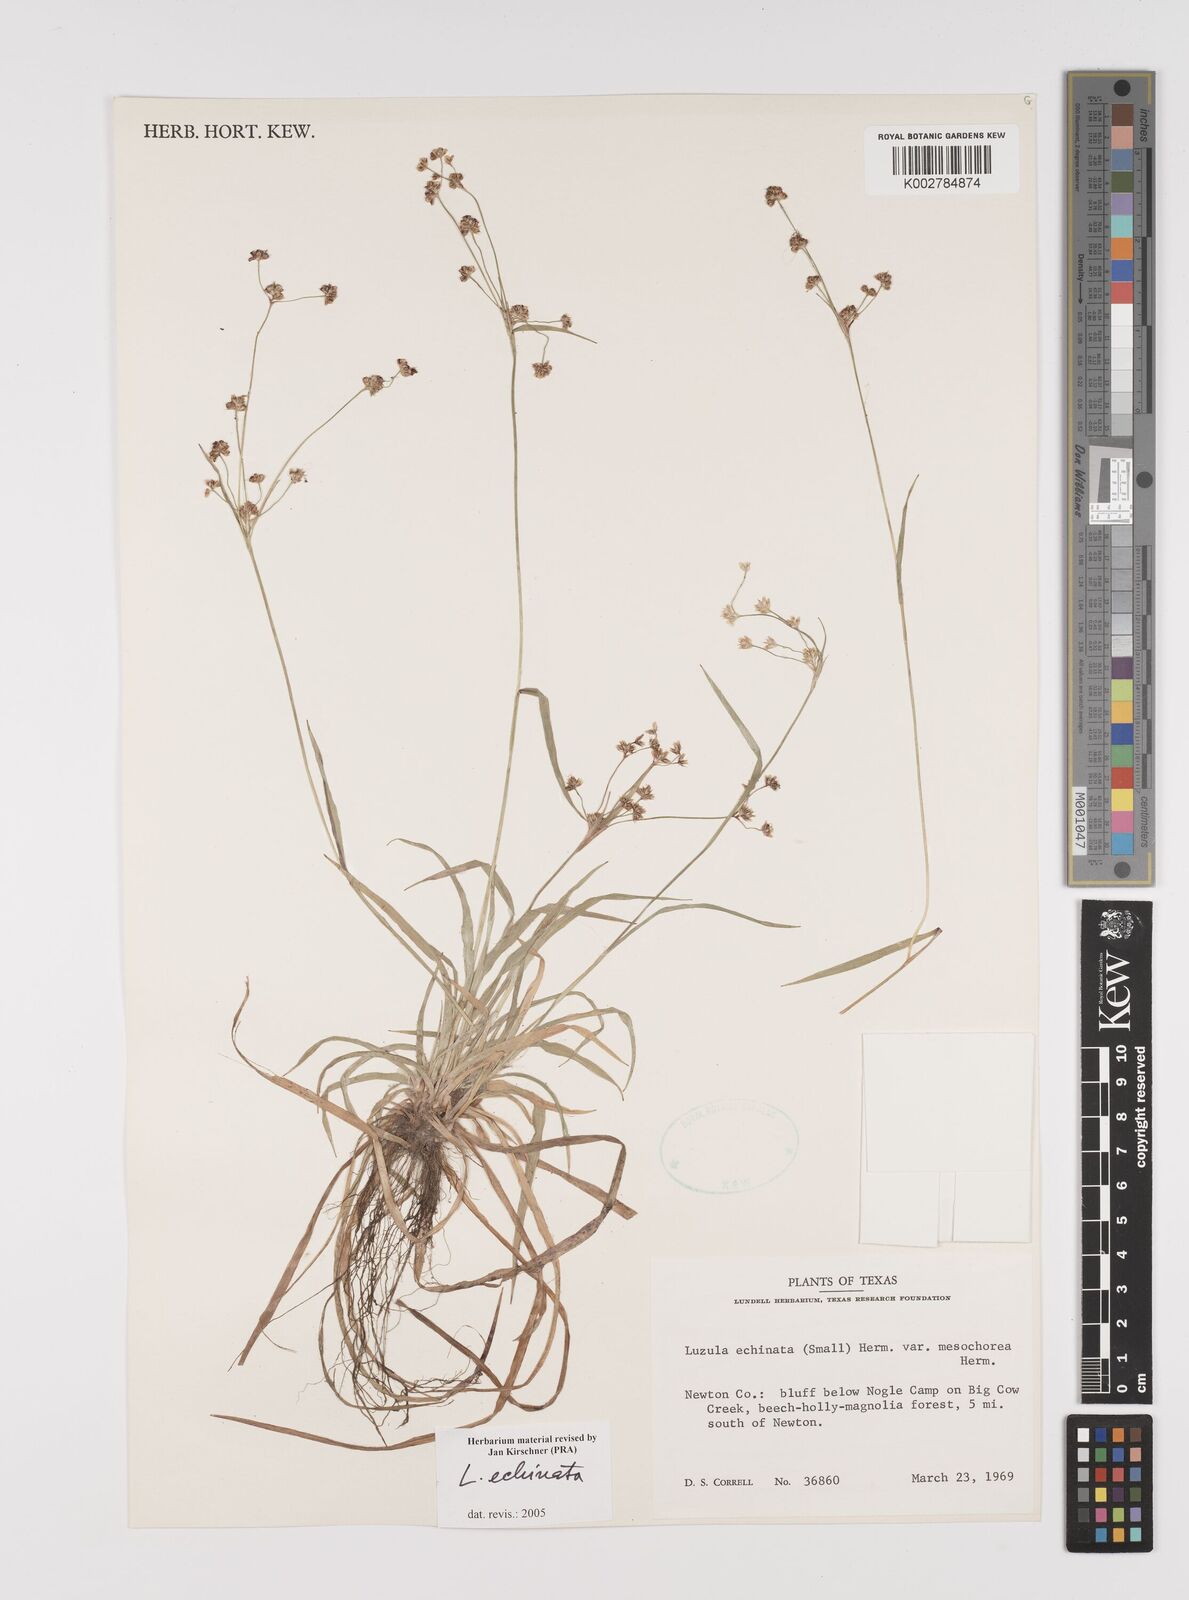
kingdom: Plantae
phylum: Tracheophyta
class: Liliopsida
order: Poales
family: Juncaceae
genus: Luzula
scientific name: Luzula echinata
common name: Hedgehog woodrush
